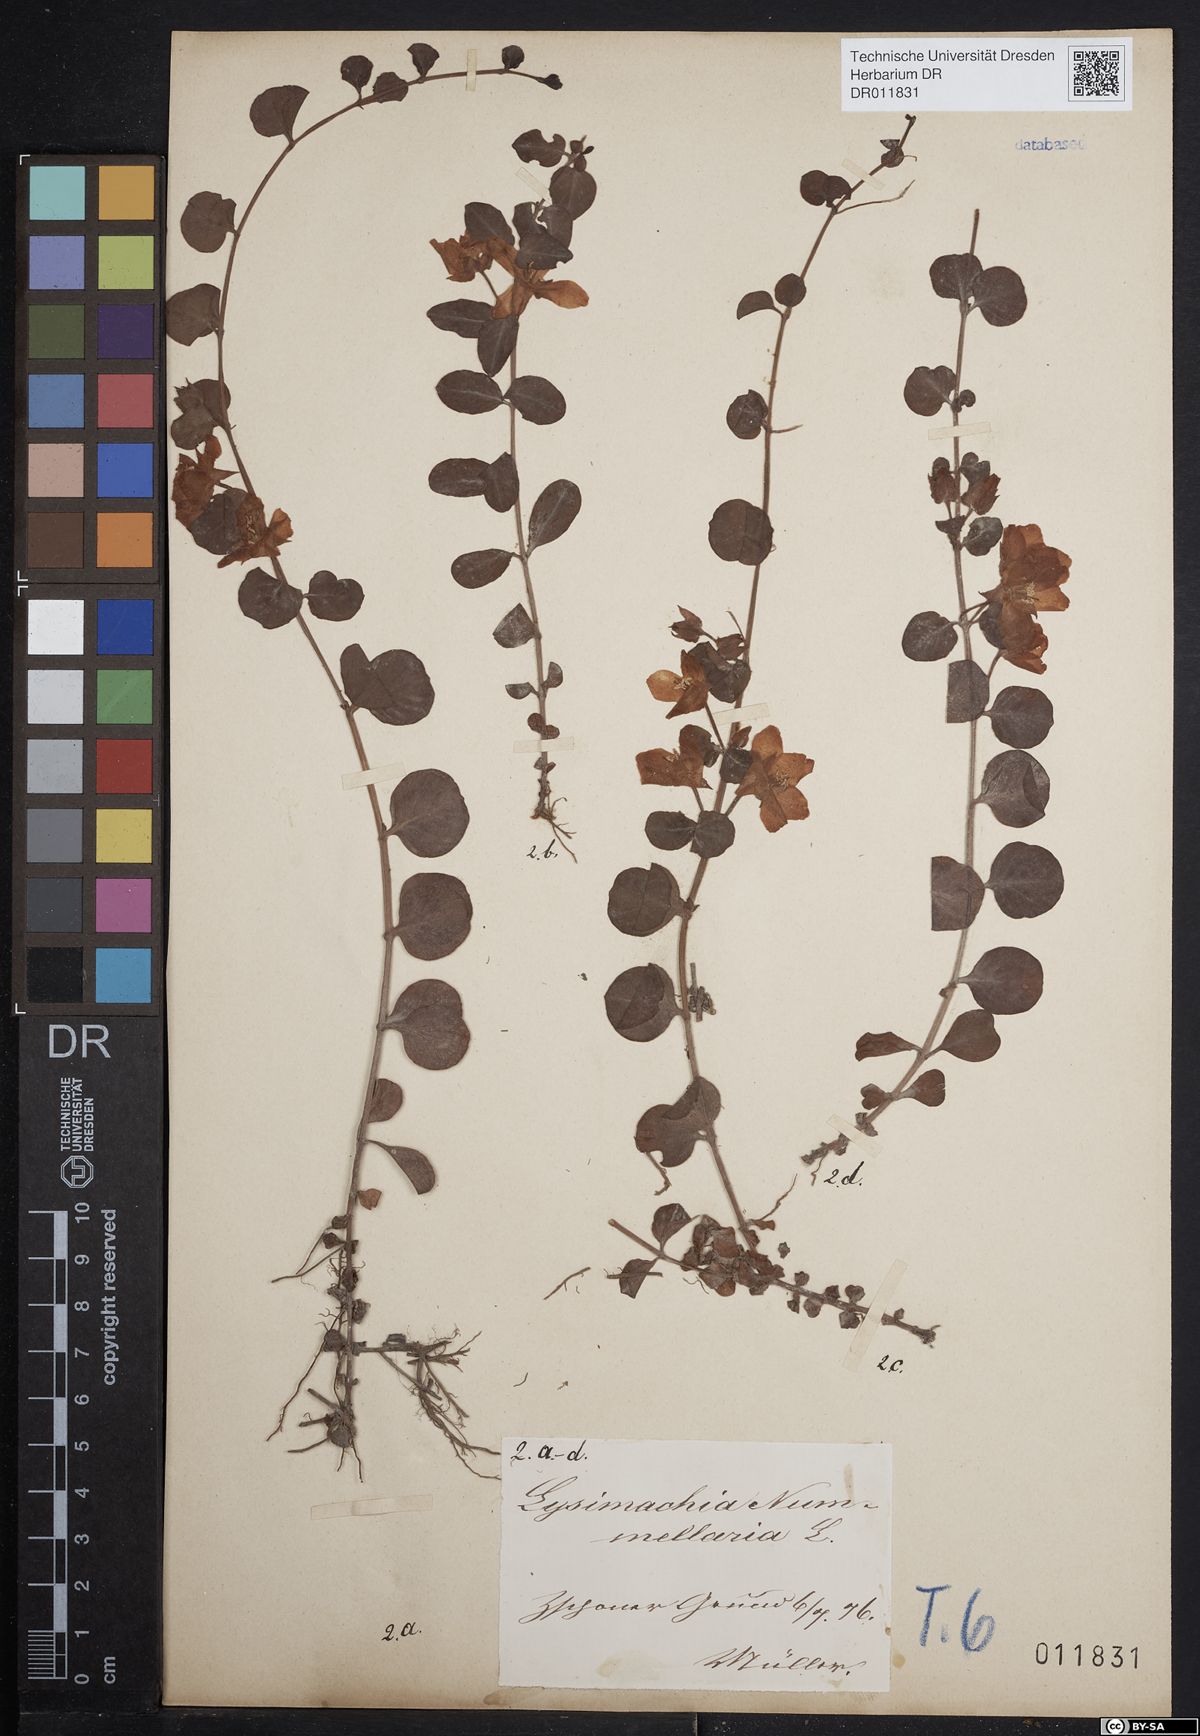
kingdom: Plantae
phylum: Tracheophyta
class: Magnoliopsida
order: Ericales
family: Primulaceae
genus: Lysimachia
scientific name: Lysimachia nummularia
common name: Moneywort
